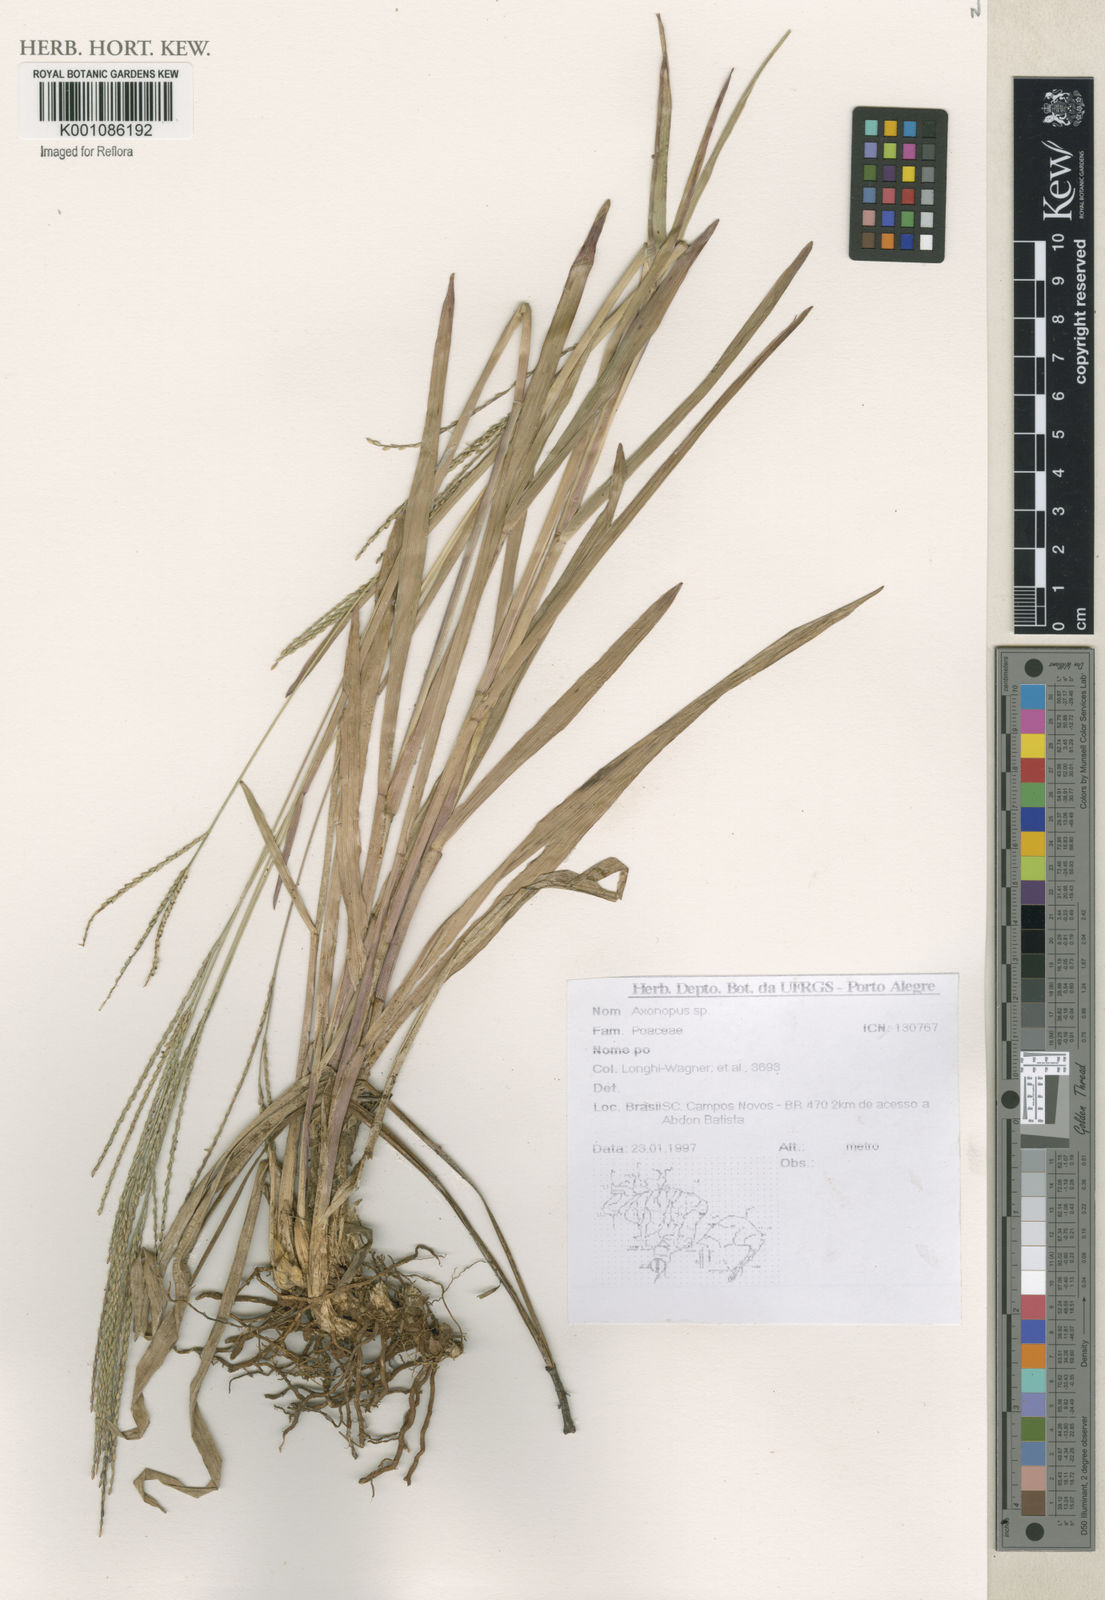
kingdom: Plantae
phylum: Tracheophyta
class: Liliopsida
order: Poales
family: Poaceae
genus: Axonopus
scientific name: Axonopus
